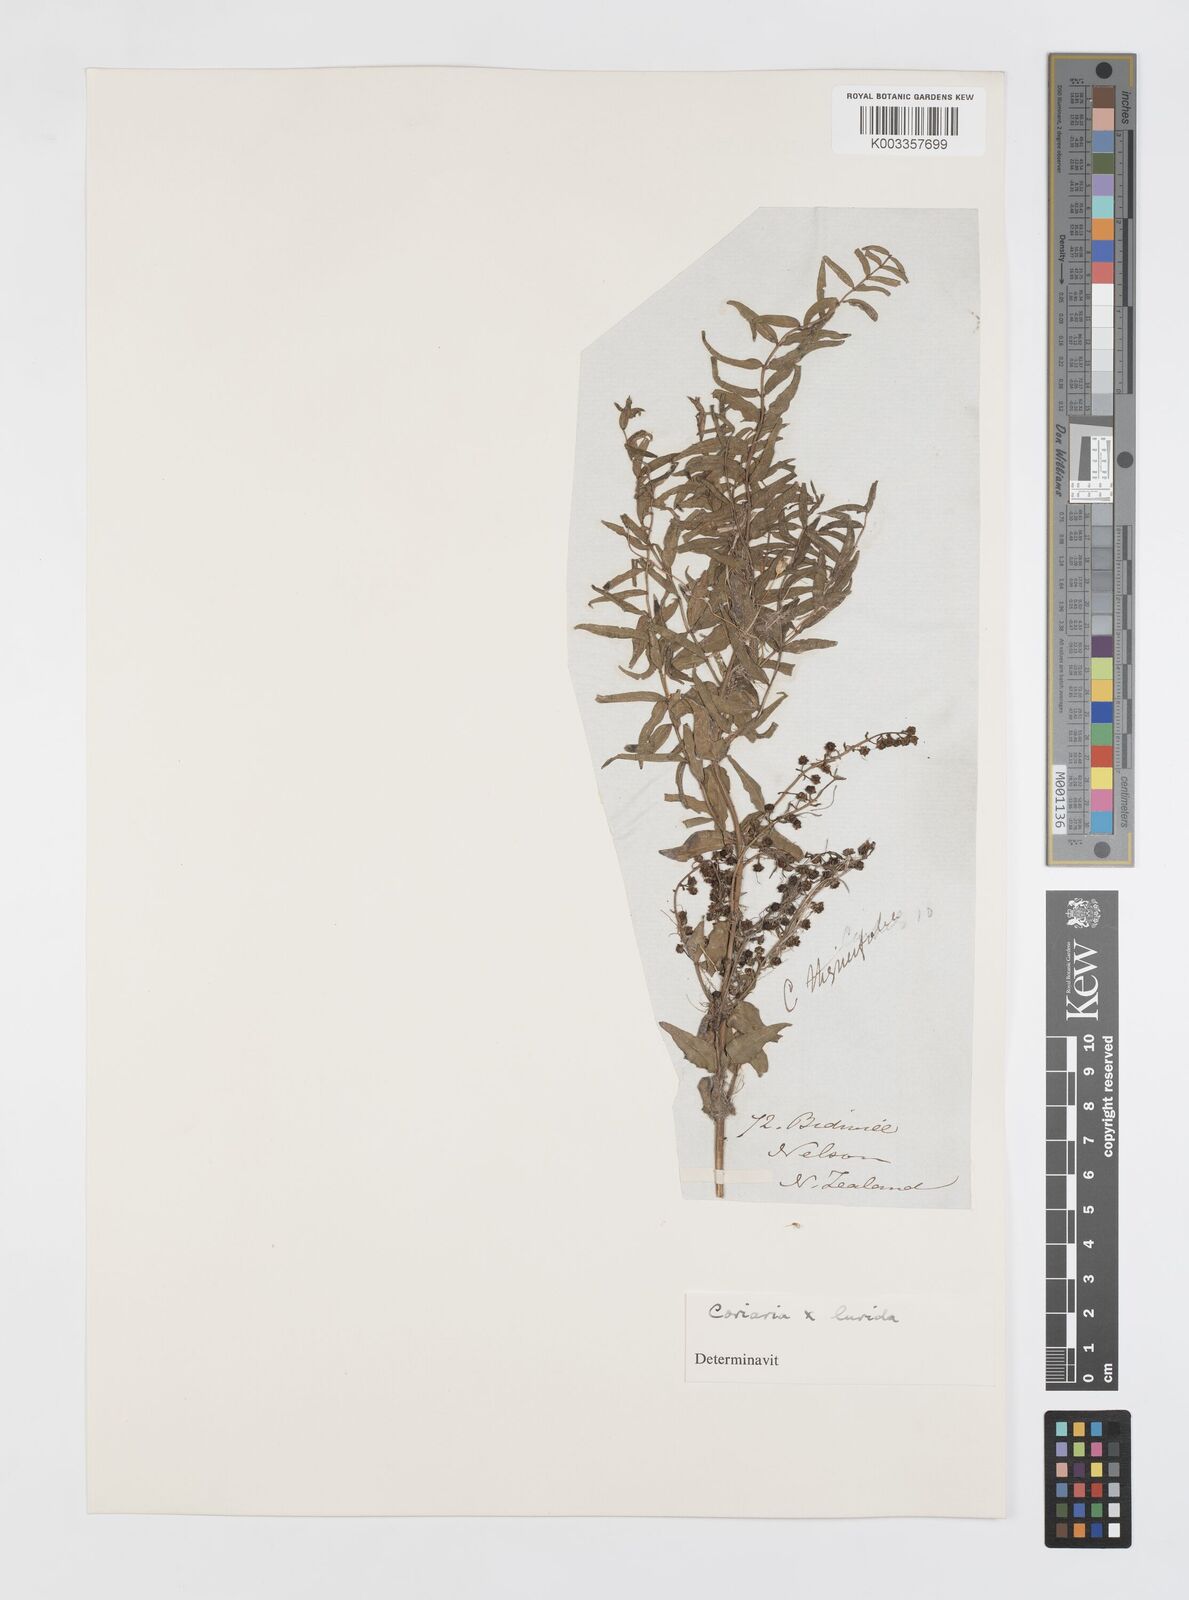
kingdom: Plantae
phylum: Tracheophyta
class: Magnoliopsida
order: Cucurbitales
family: Coriariaceae
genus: Coriaria
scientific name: Coriaria lurida
